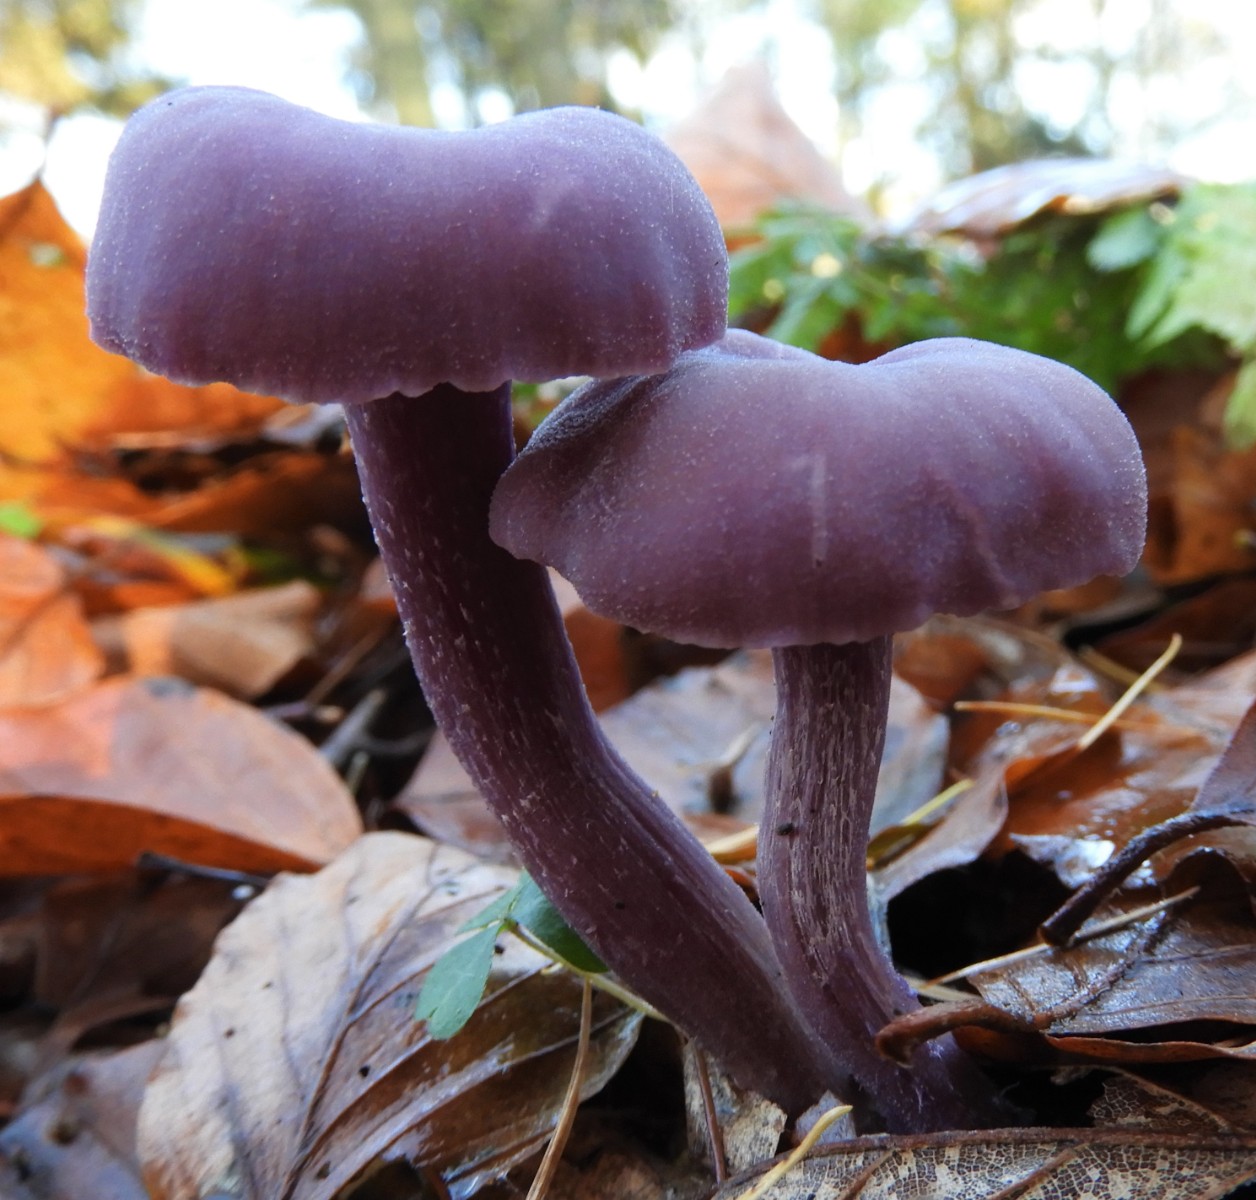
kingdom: Fungi
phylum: Basidiomycota
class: Agaricomycetes
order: Agaricales
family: Hydnangiaceae
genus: Laccaria
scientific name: Laccaria amethystina
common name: violet ametysthat
